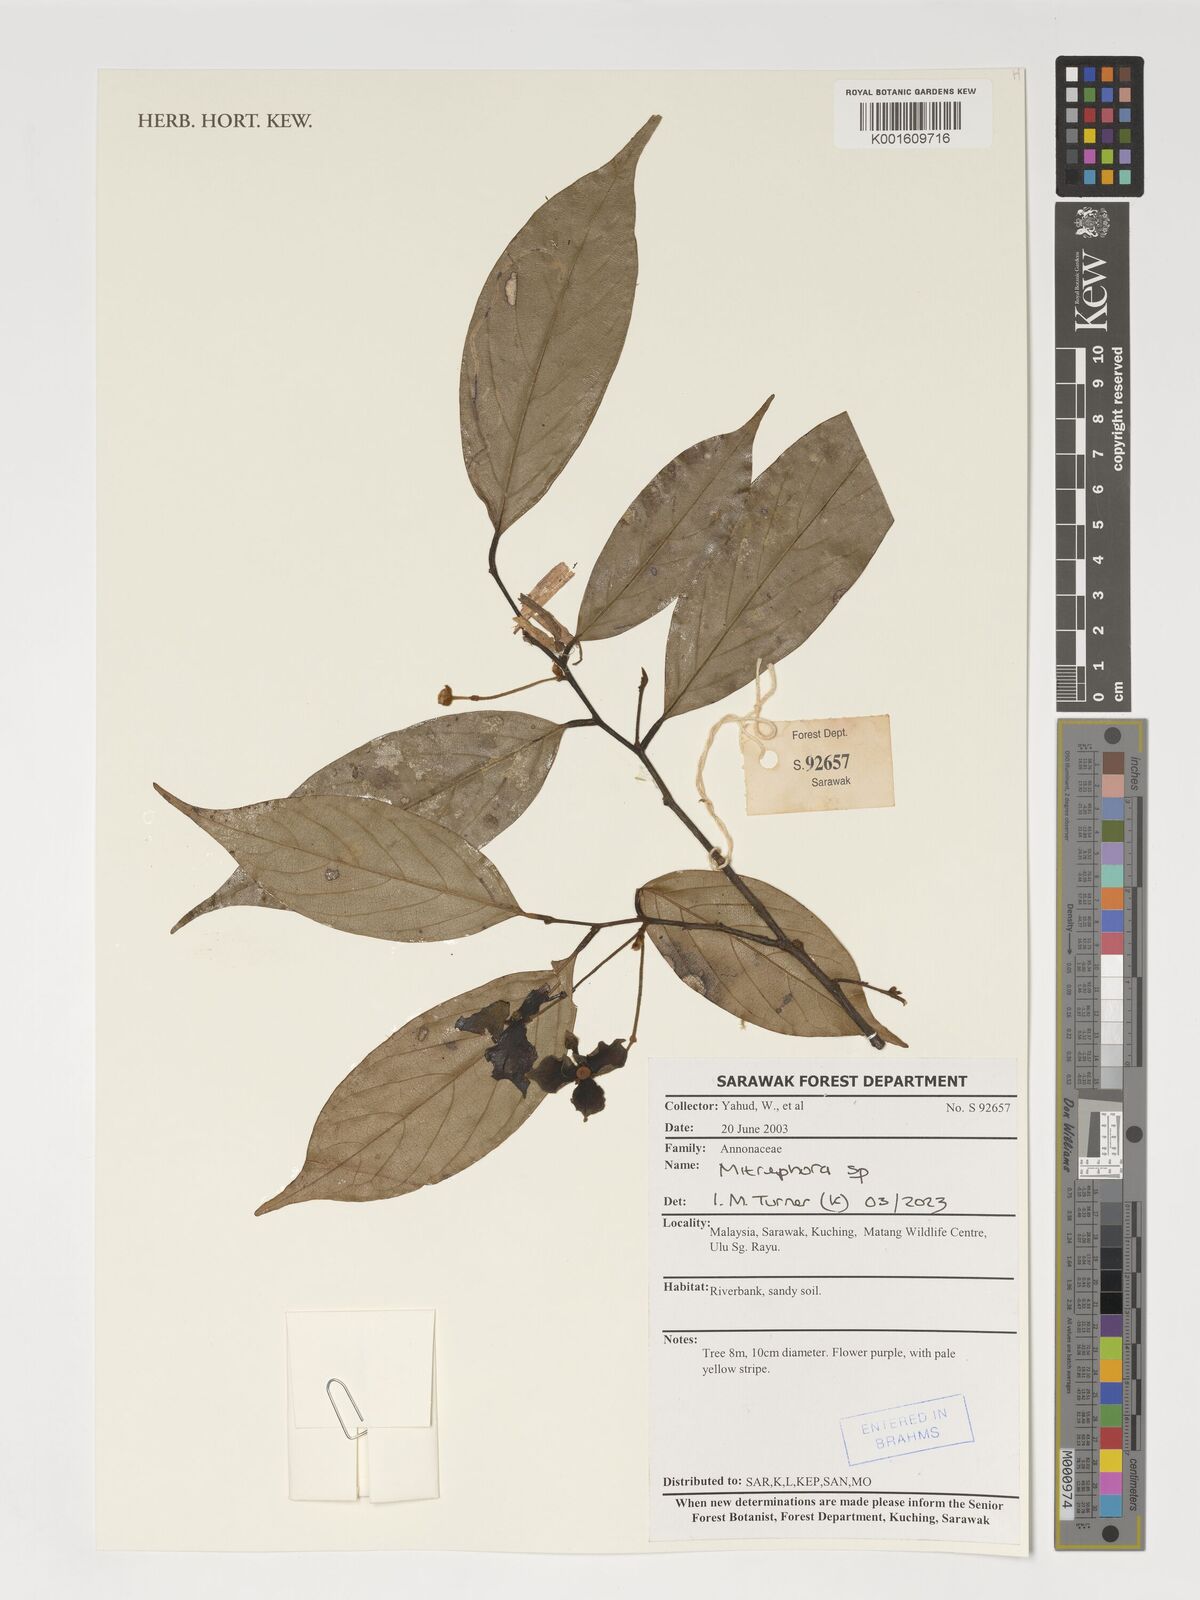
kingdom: Plantae
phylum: Tracheophyta
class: Magnoliopsida
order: Magnoliales
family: Annonaceae
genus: Mitrephora
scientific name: Mitrephora
